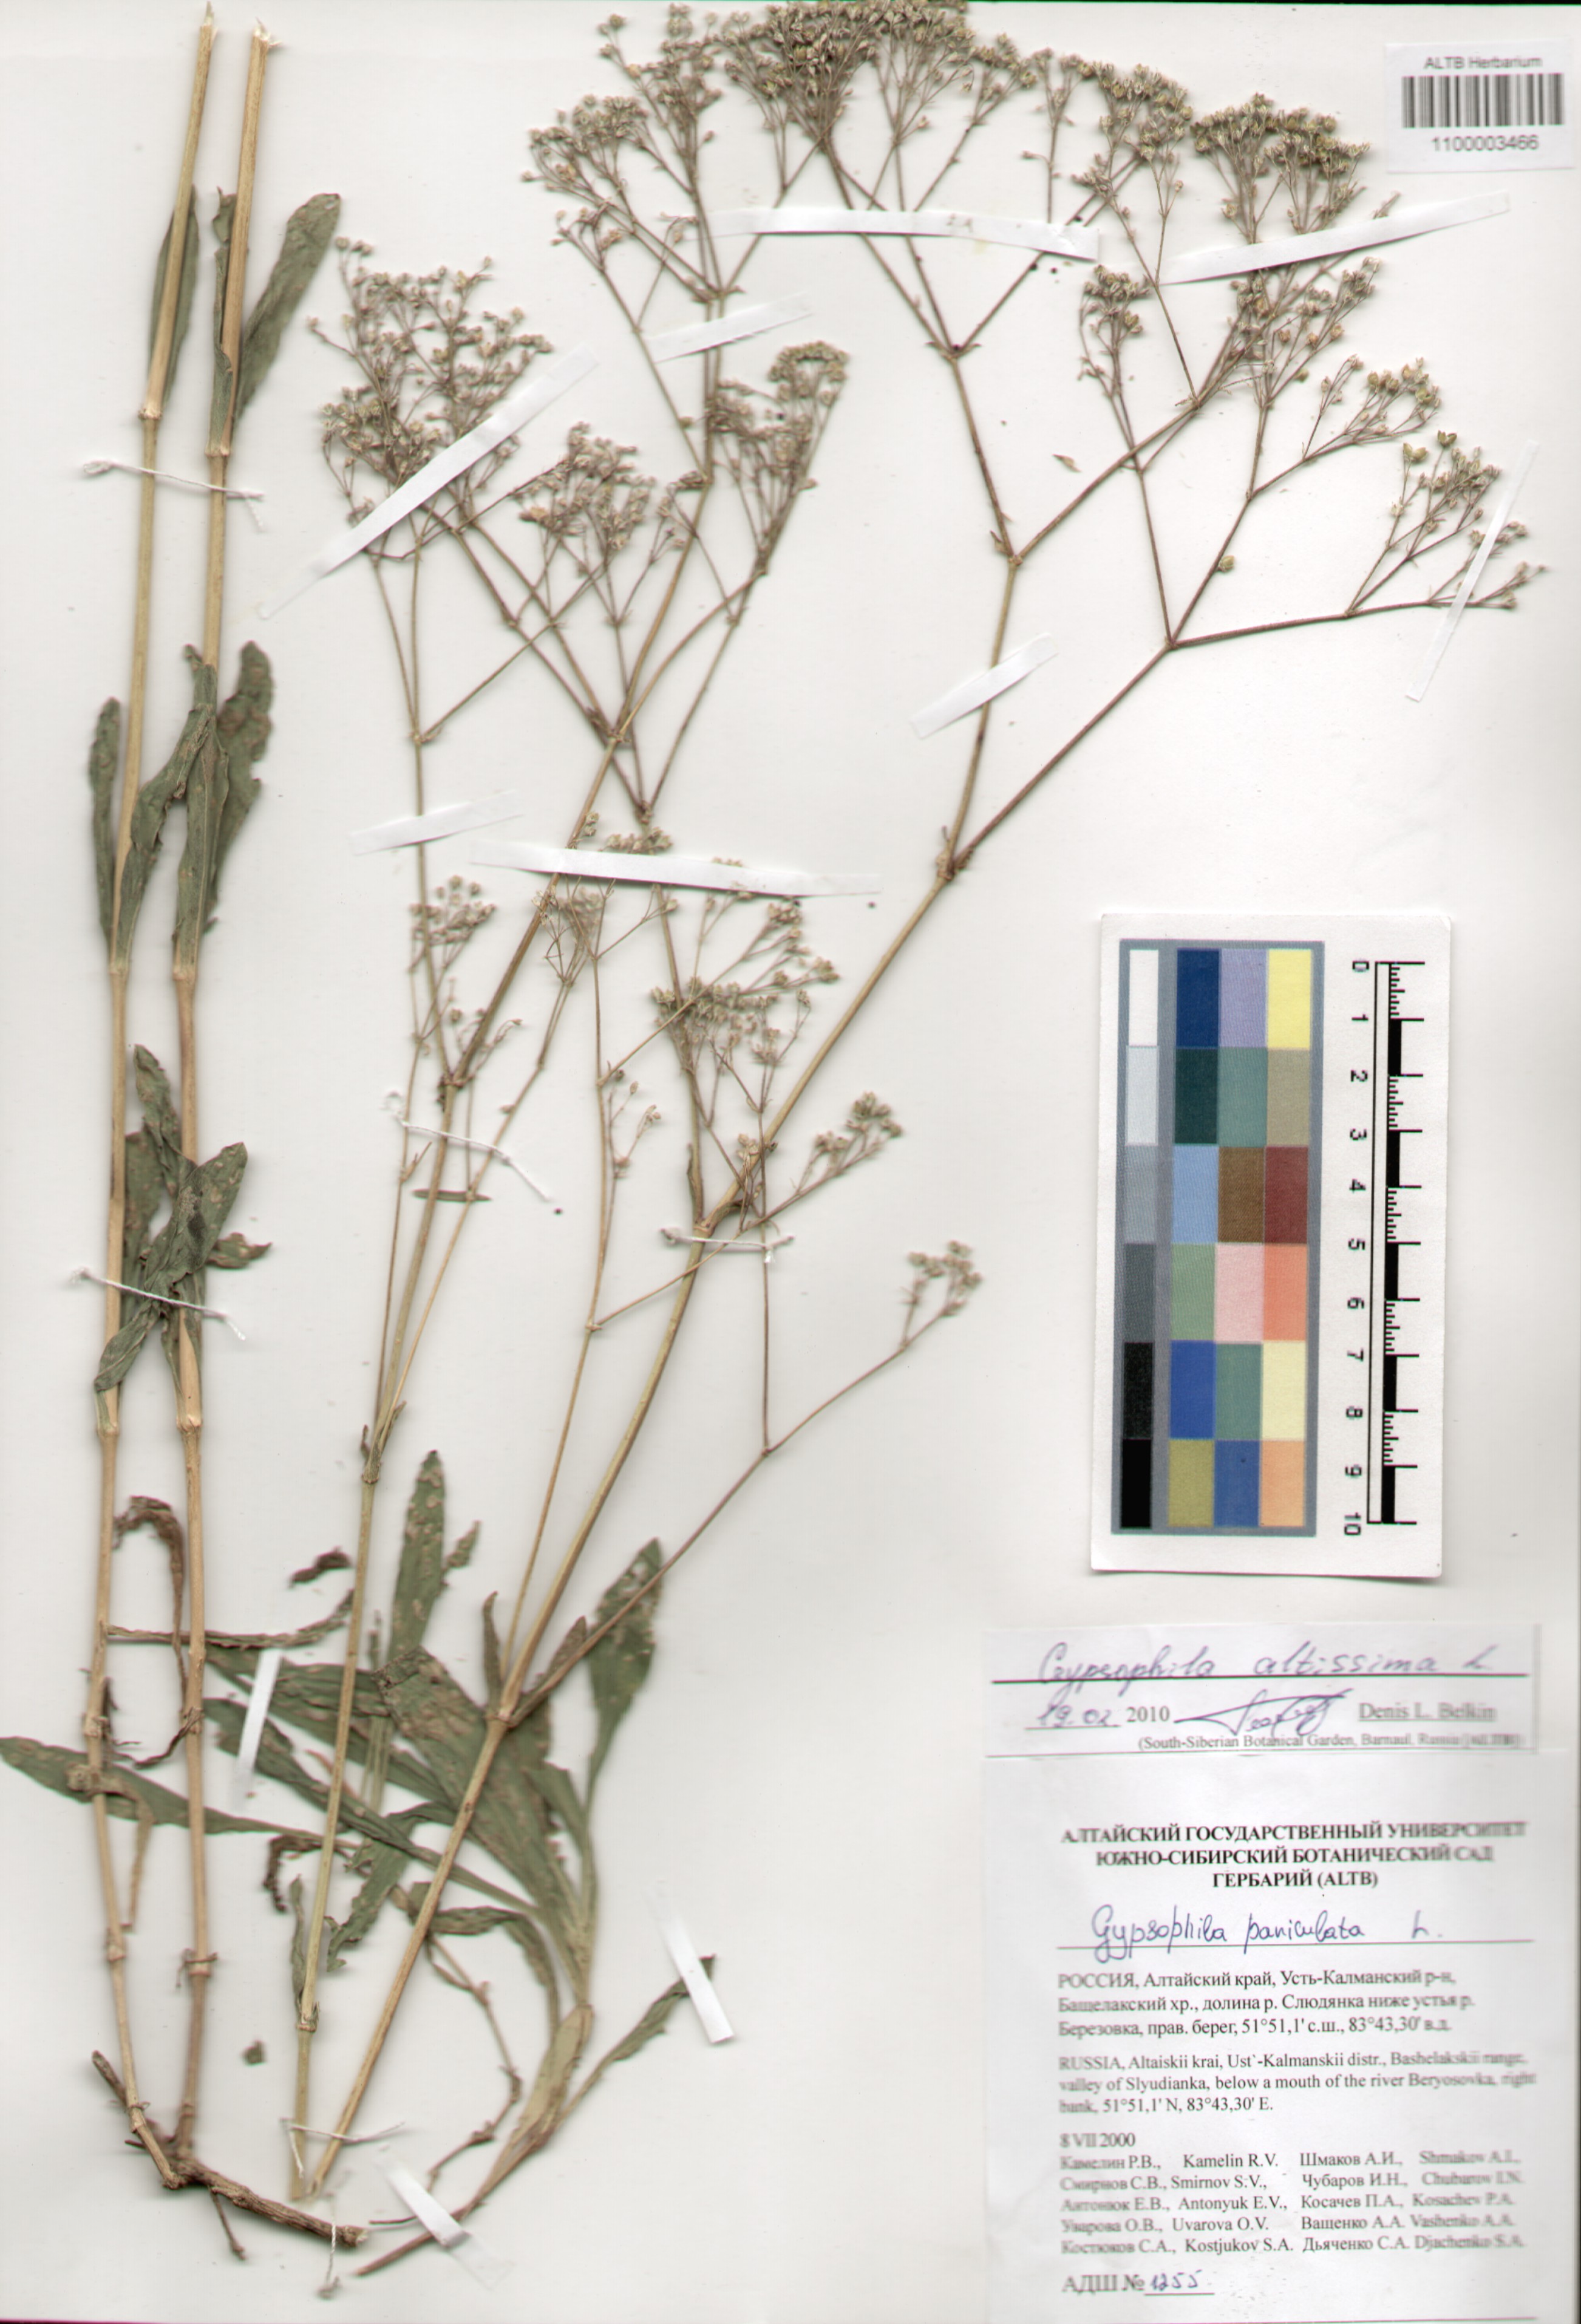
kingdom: Plantae
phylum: Tracheophyta
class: Magnoliopsida
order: Caryophyllales
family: Caryophyllaceae
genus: Gypsophila
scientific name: Gypsophila altissima
